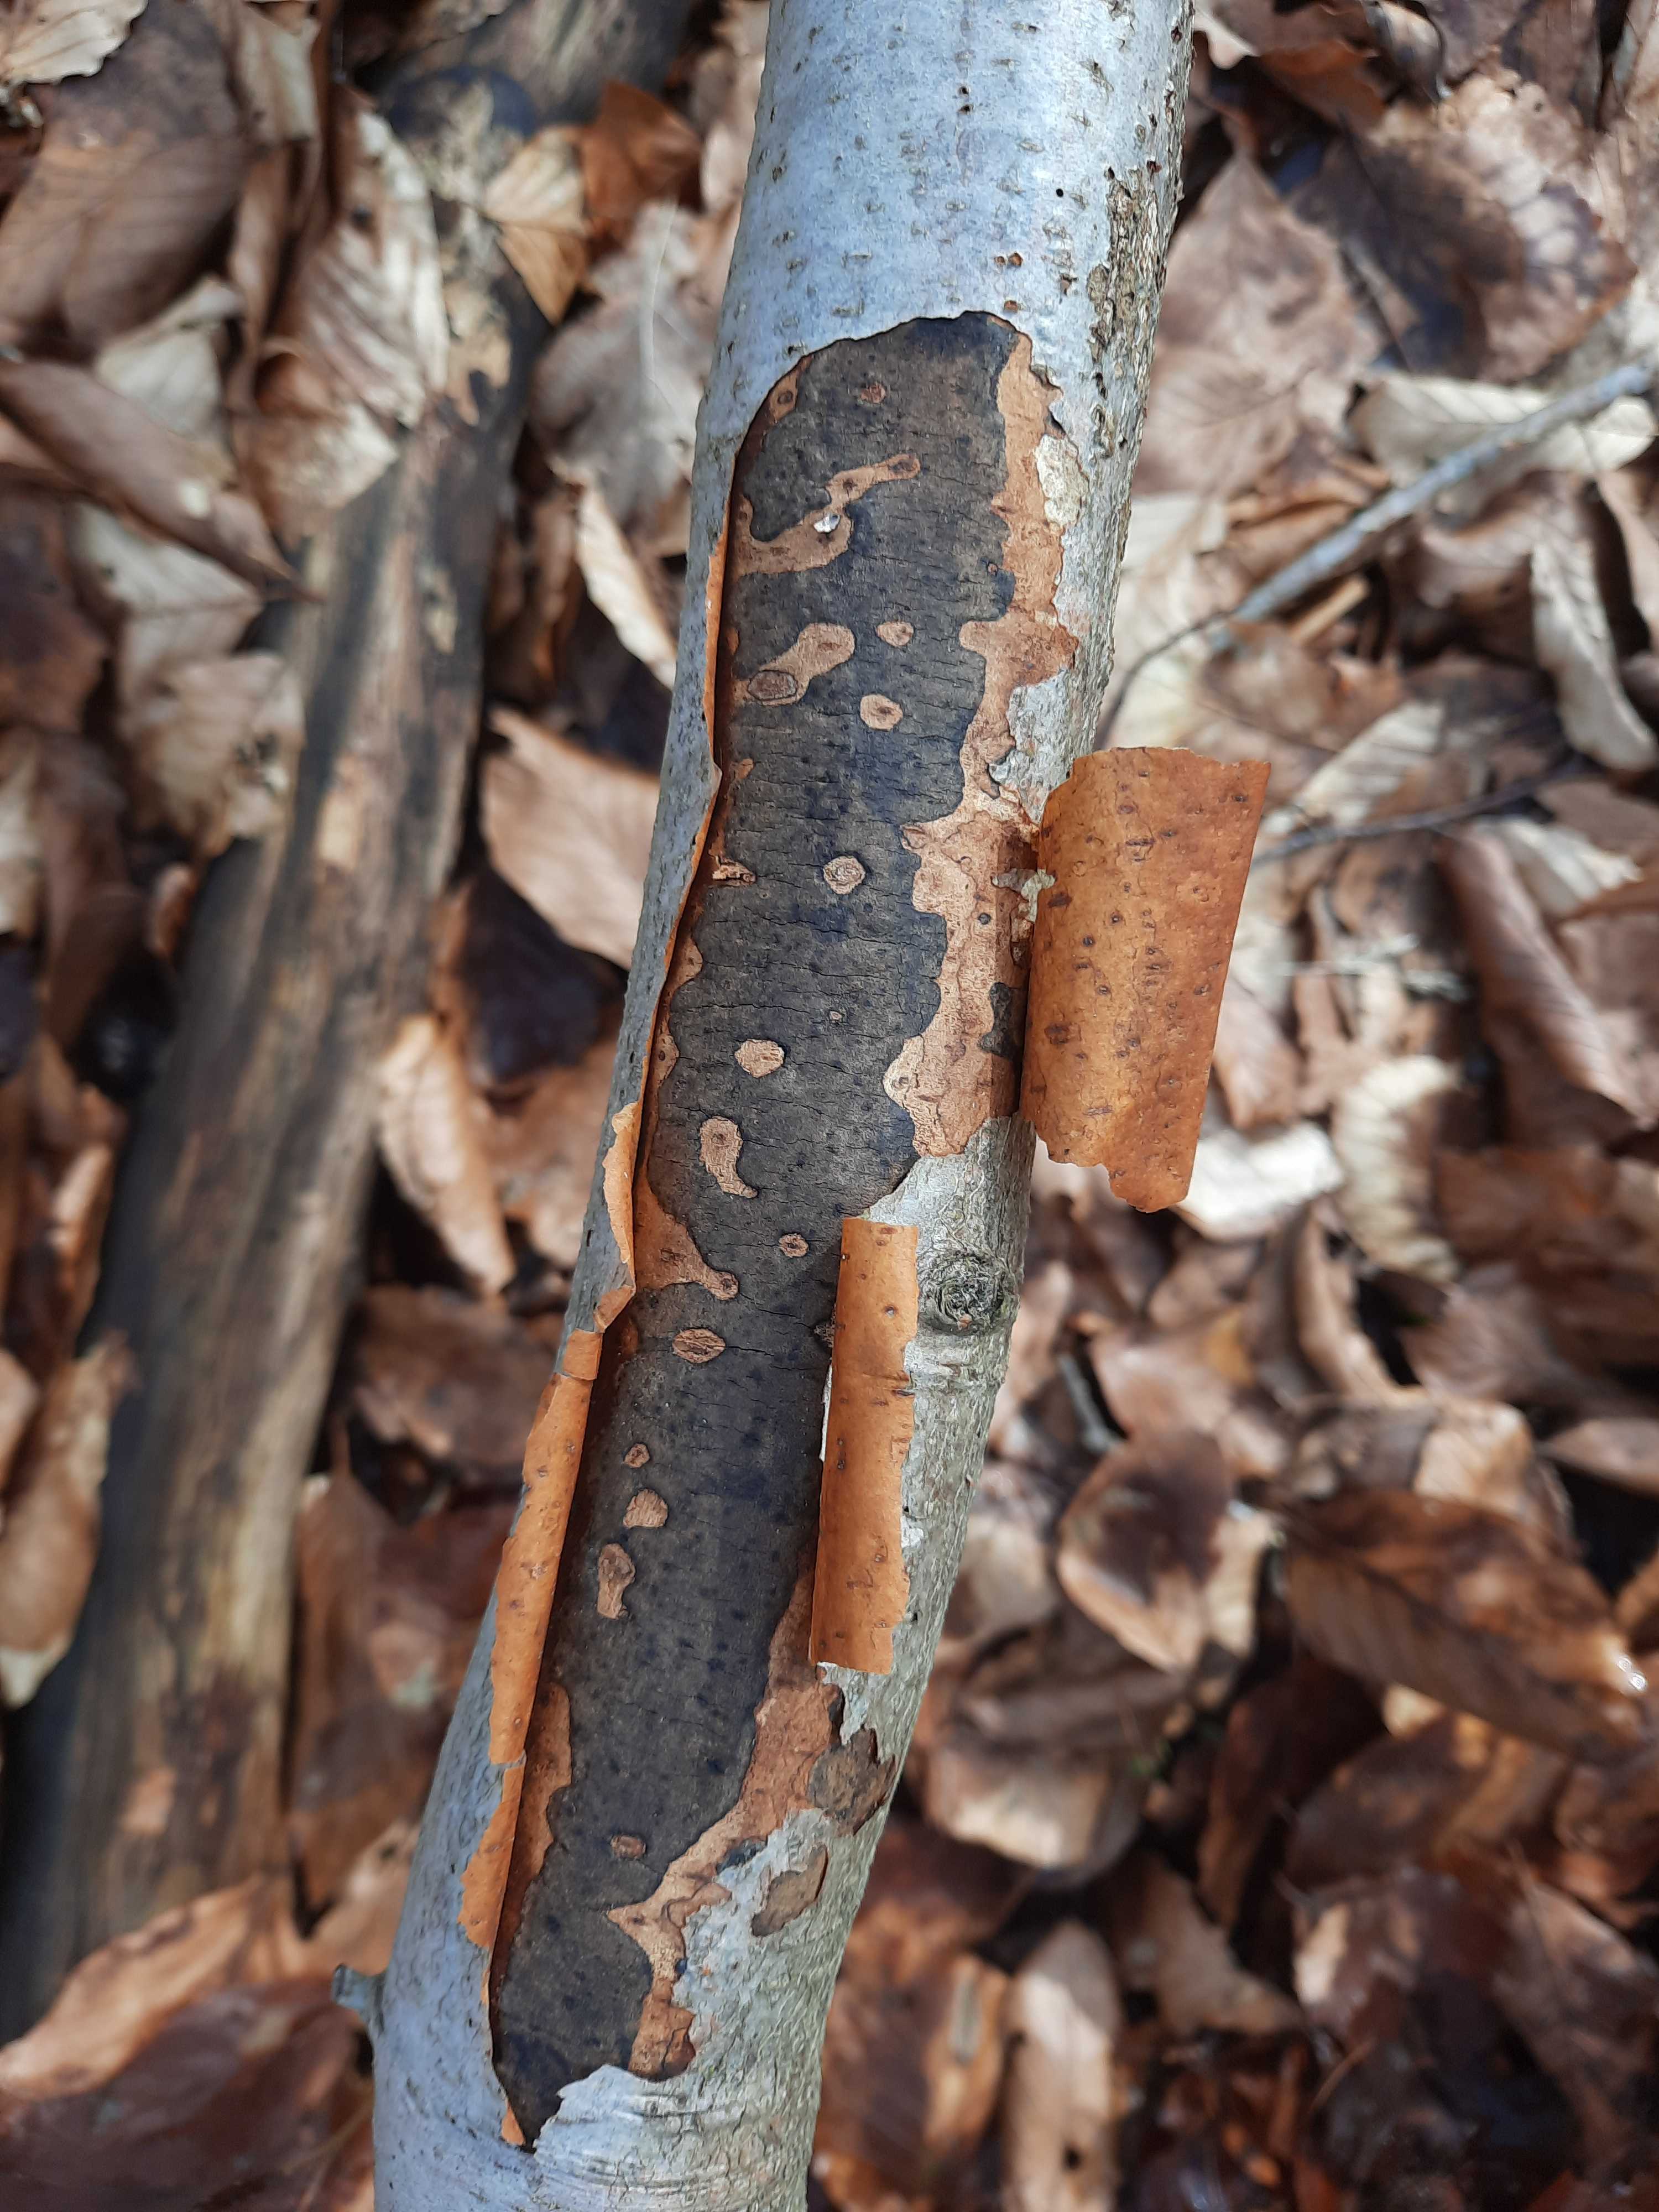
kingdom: Fungi
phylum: Ascomycota
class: Sordariomycetes
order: Xylariales
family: Diatrypaceae
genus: Diatrype
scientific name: Diatrype decorticata
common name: barksprænger-kulskorpe
